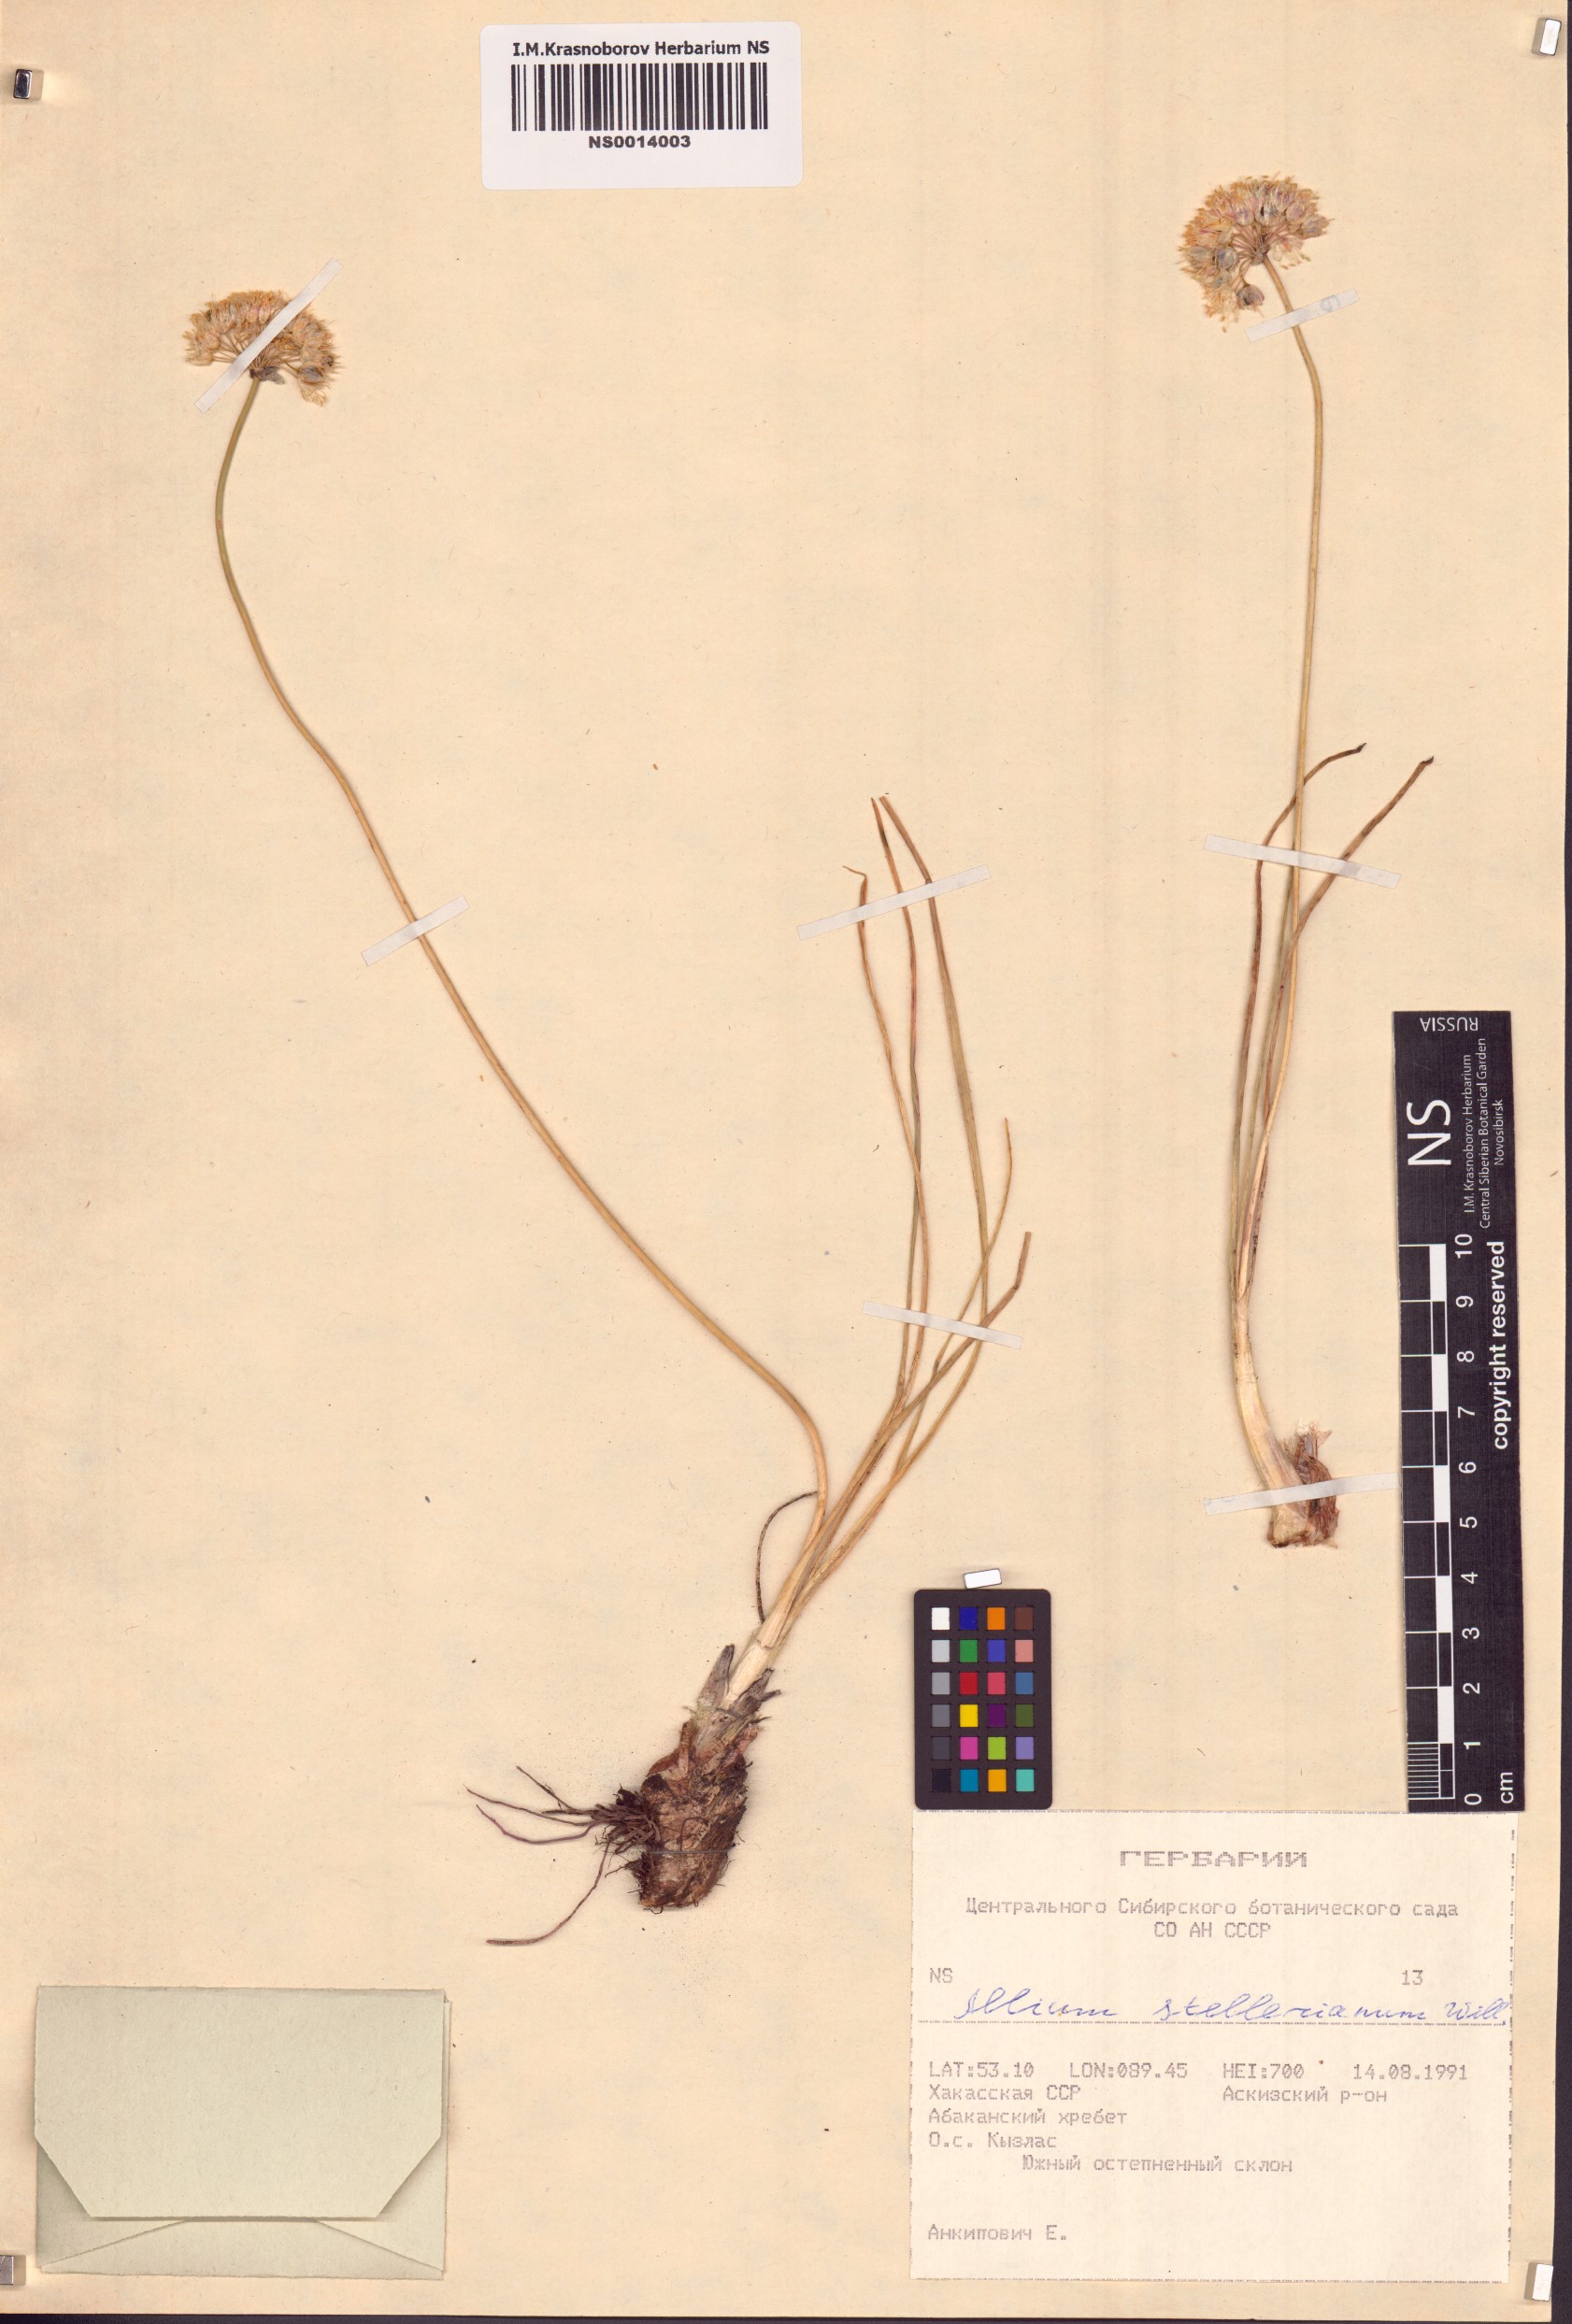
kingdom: Plantae
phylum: Tracheophyta
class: Liliopsida
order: Asparagales
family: Amaryllidaceae
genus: Allium
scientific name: Allium stellerianum
